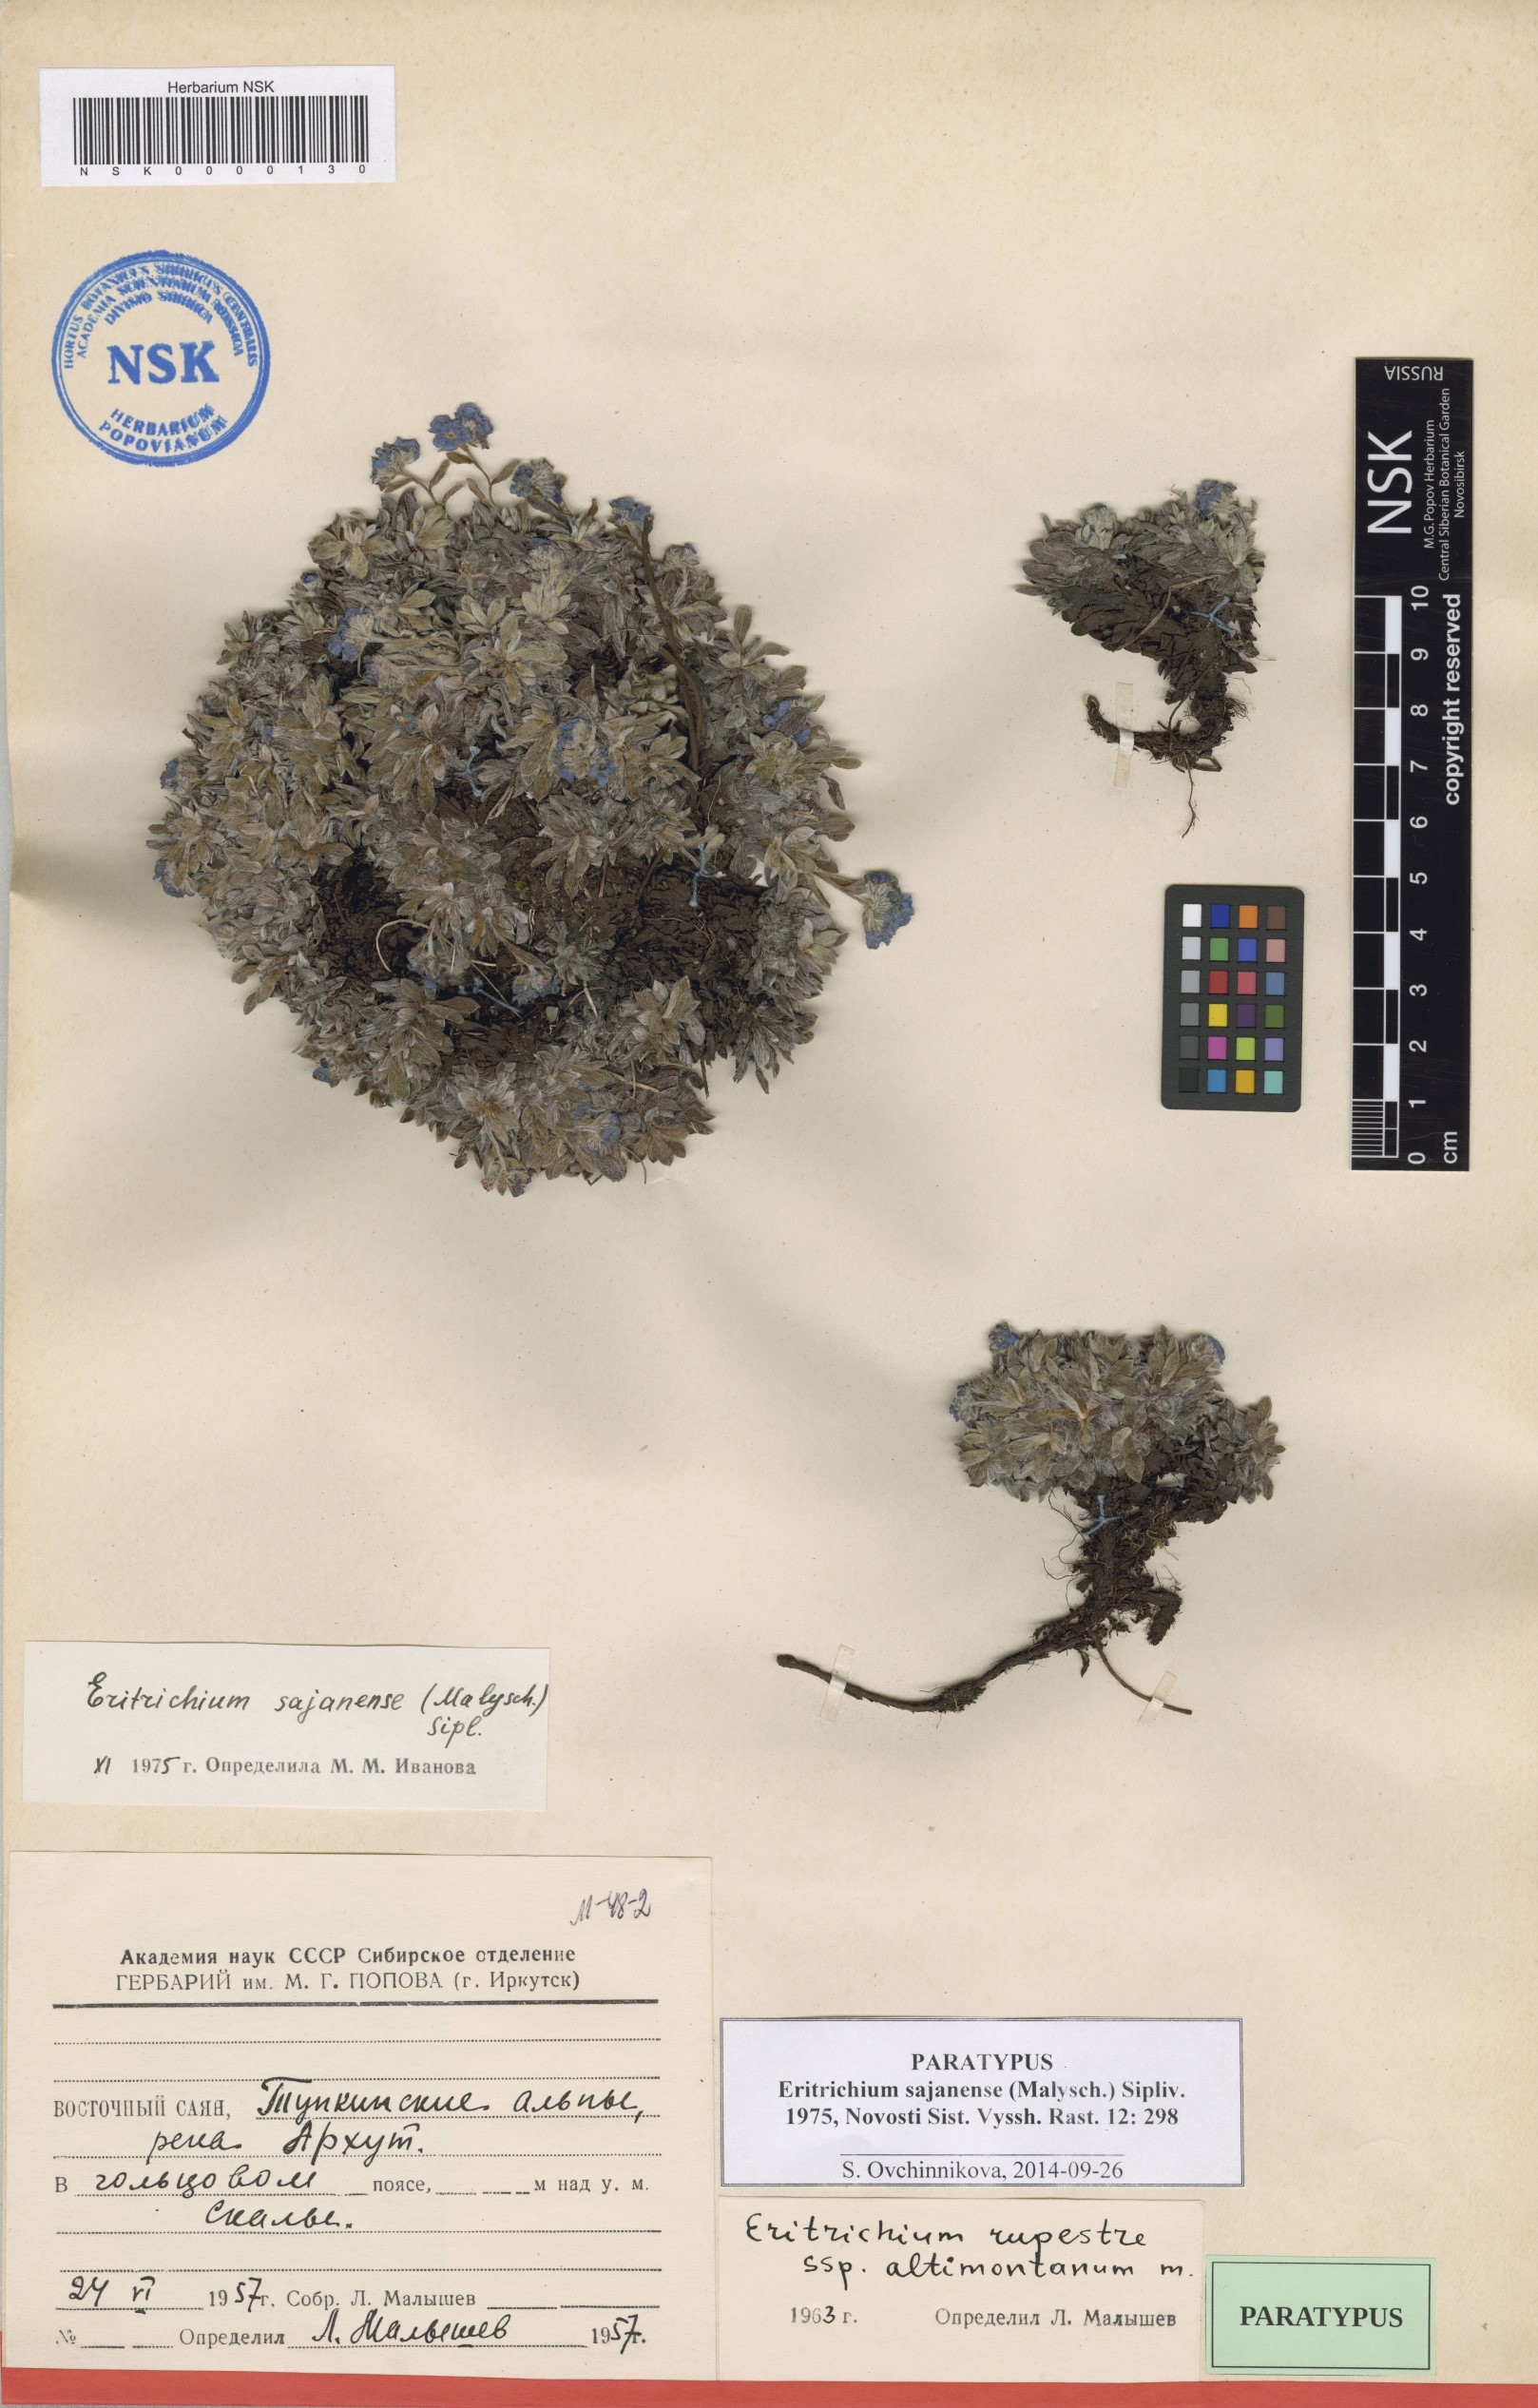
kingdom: Plantae
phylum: Tracheophyta
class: Magnoliopsida
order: Boraginales
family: Boraginaceae
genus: Eritrichium
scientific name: Eritrichium sajanense
